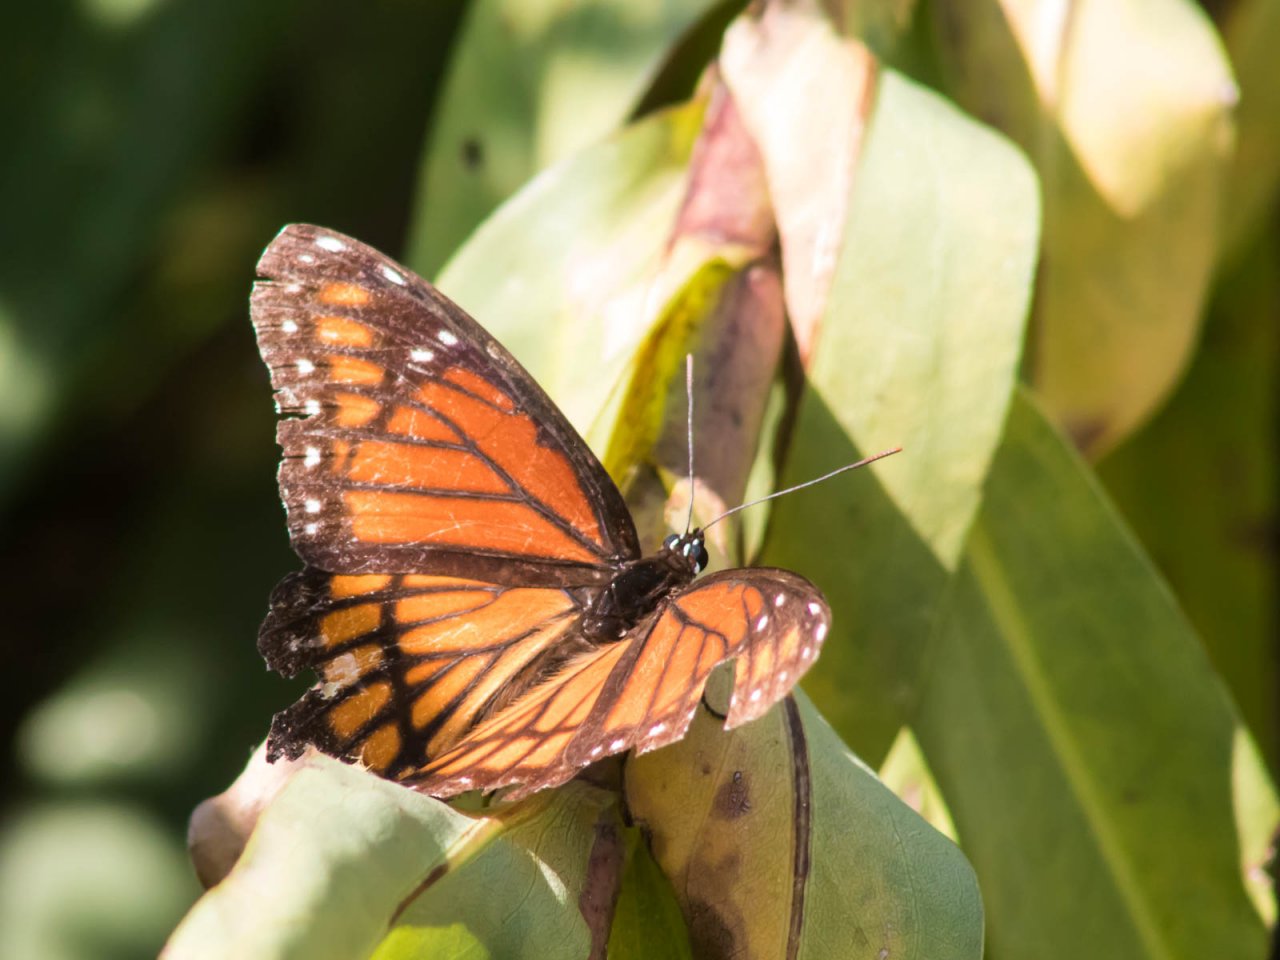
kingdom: Animalia
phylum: Arthropoda
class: Insecta
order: Lepidoptera
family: Nymphalidae
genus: Limenitis
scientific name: Limenitis archippus
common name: Viceroy
